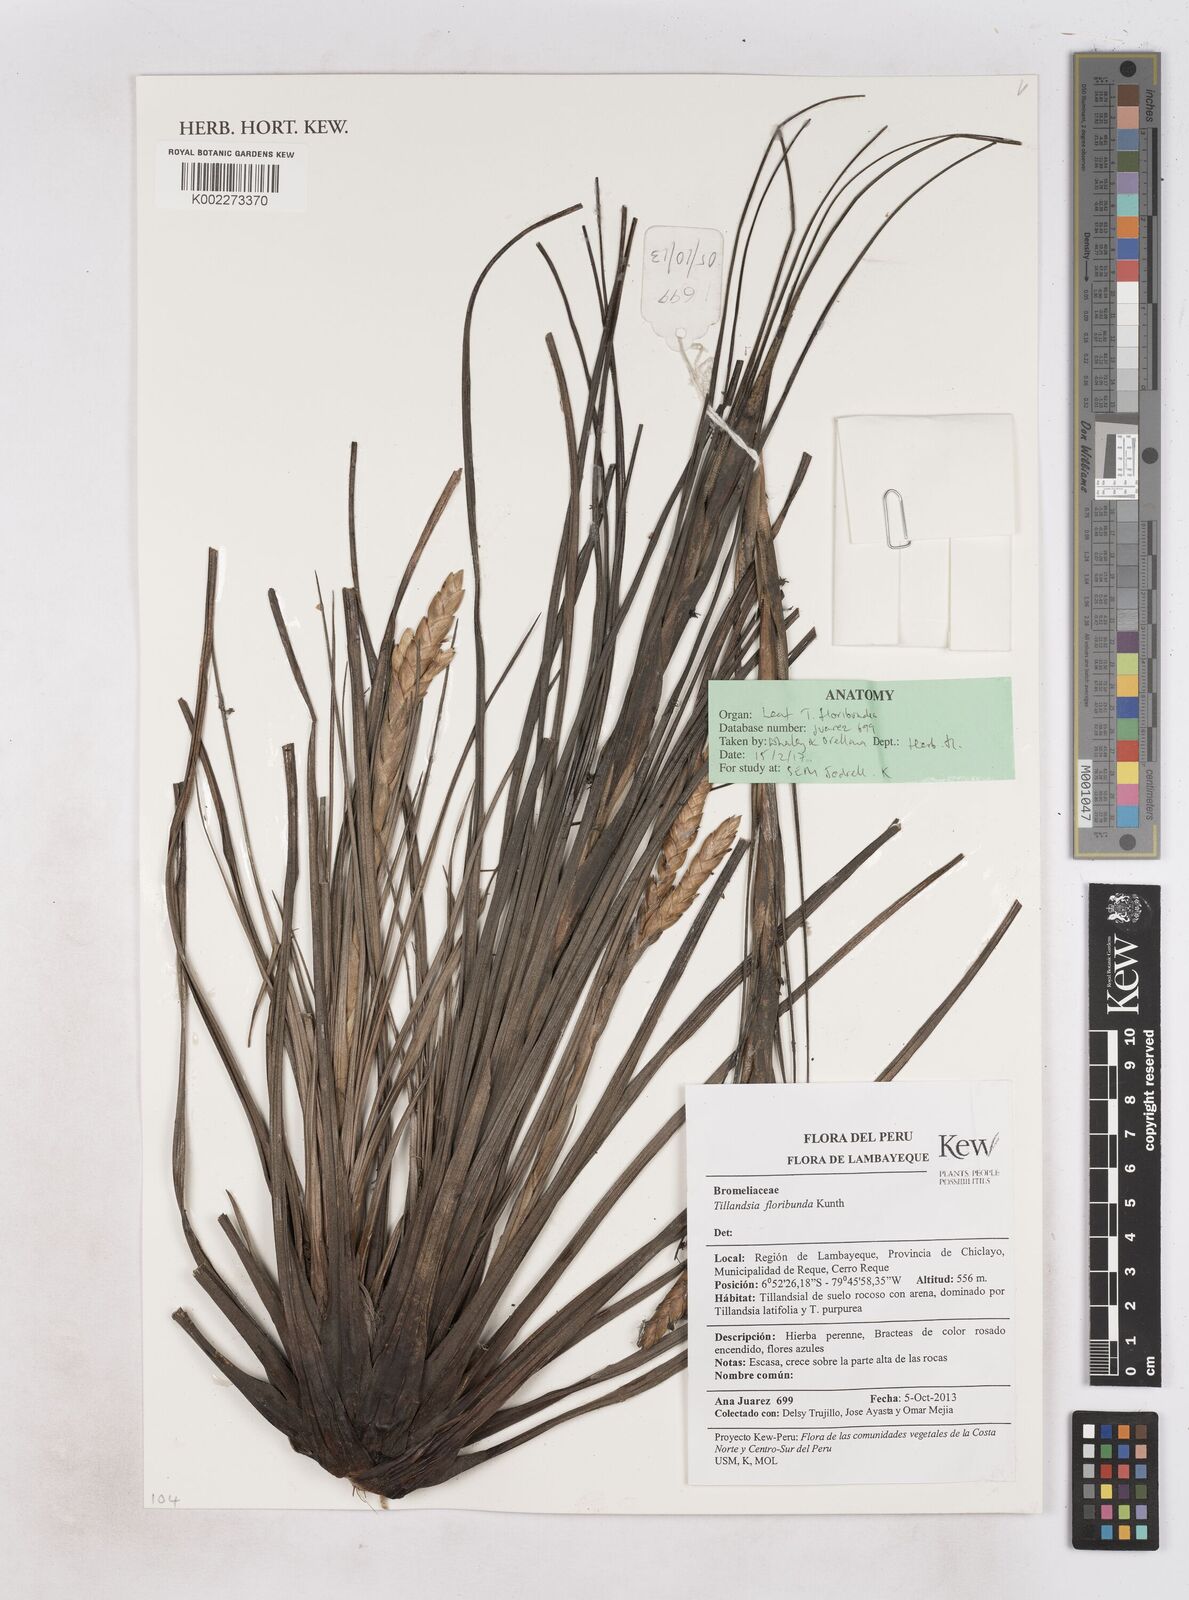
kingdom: Plantae
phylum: Tracheophyta
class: Liliopsida
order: Poales
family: Bromeliaceae
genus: Tillandsia
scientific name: Tillandsia floribunda
